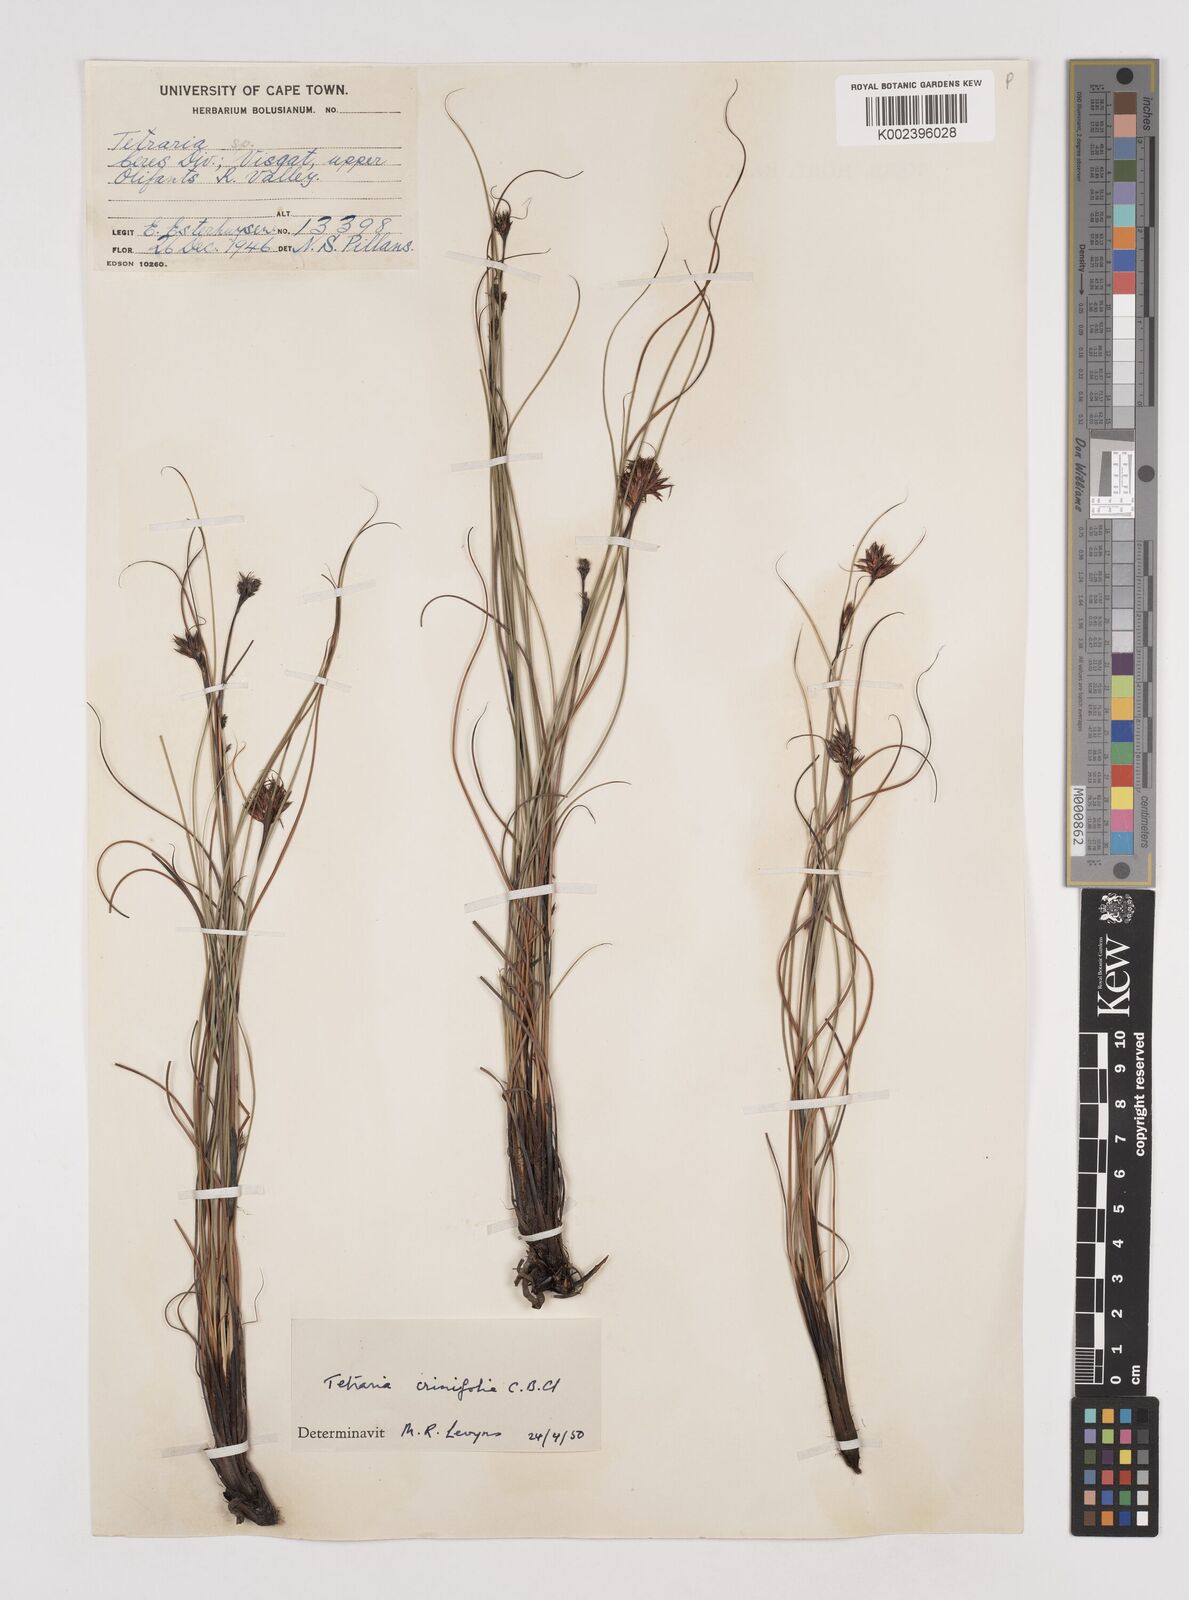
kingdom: Plantae
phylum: Tracheophyta
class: Liliopsida
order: Poales
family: Cyperaceae
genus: Tetraria
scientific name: Tetraria crinifolia
